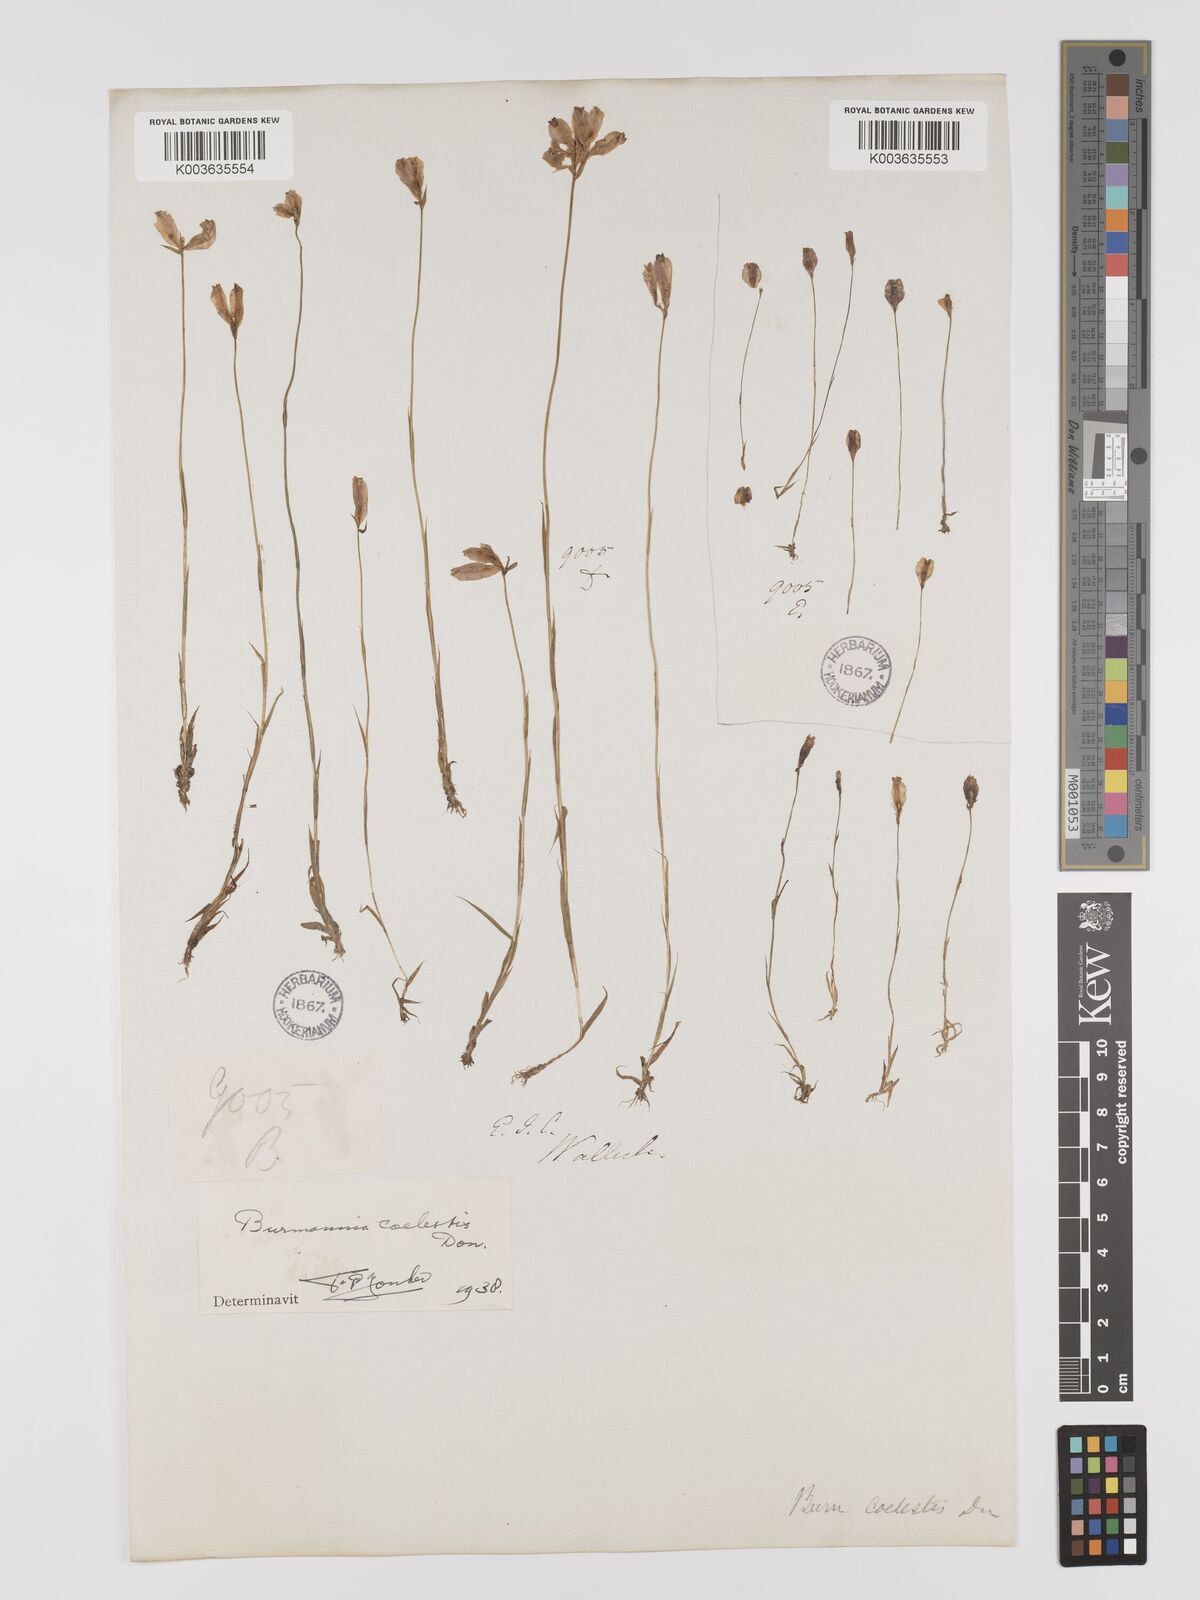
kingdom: Plantae
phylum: Tracheophyta
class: Liliopsida
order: Dioscoreales
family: Burmanniaceae
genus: Burmannia
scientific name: Burmannia coelestis
